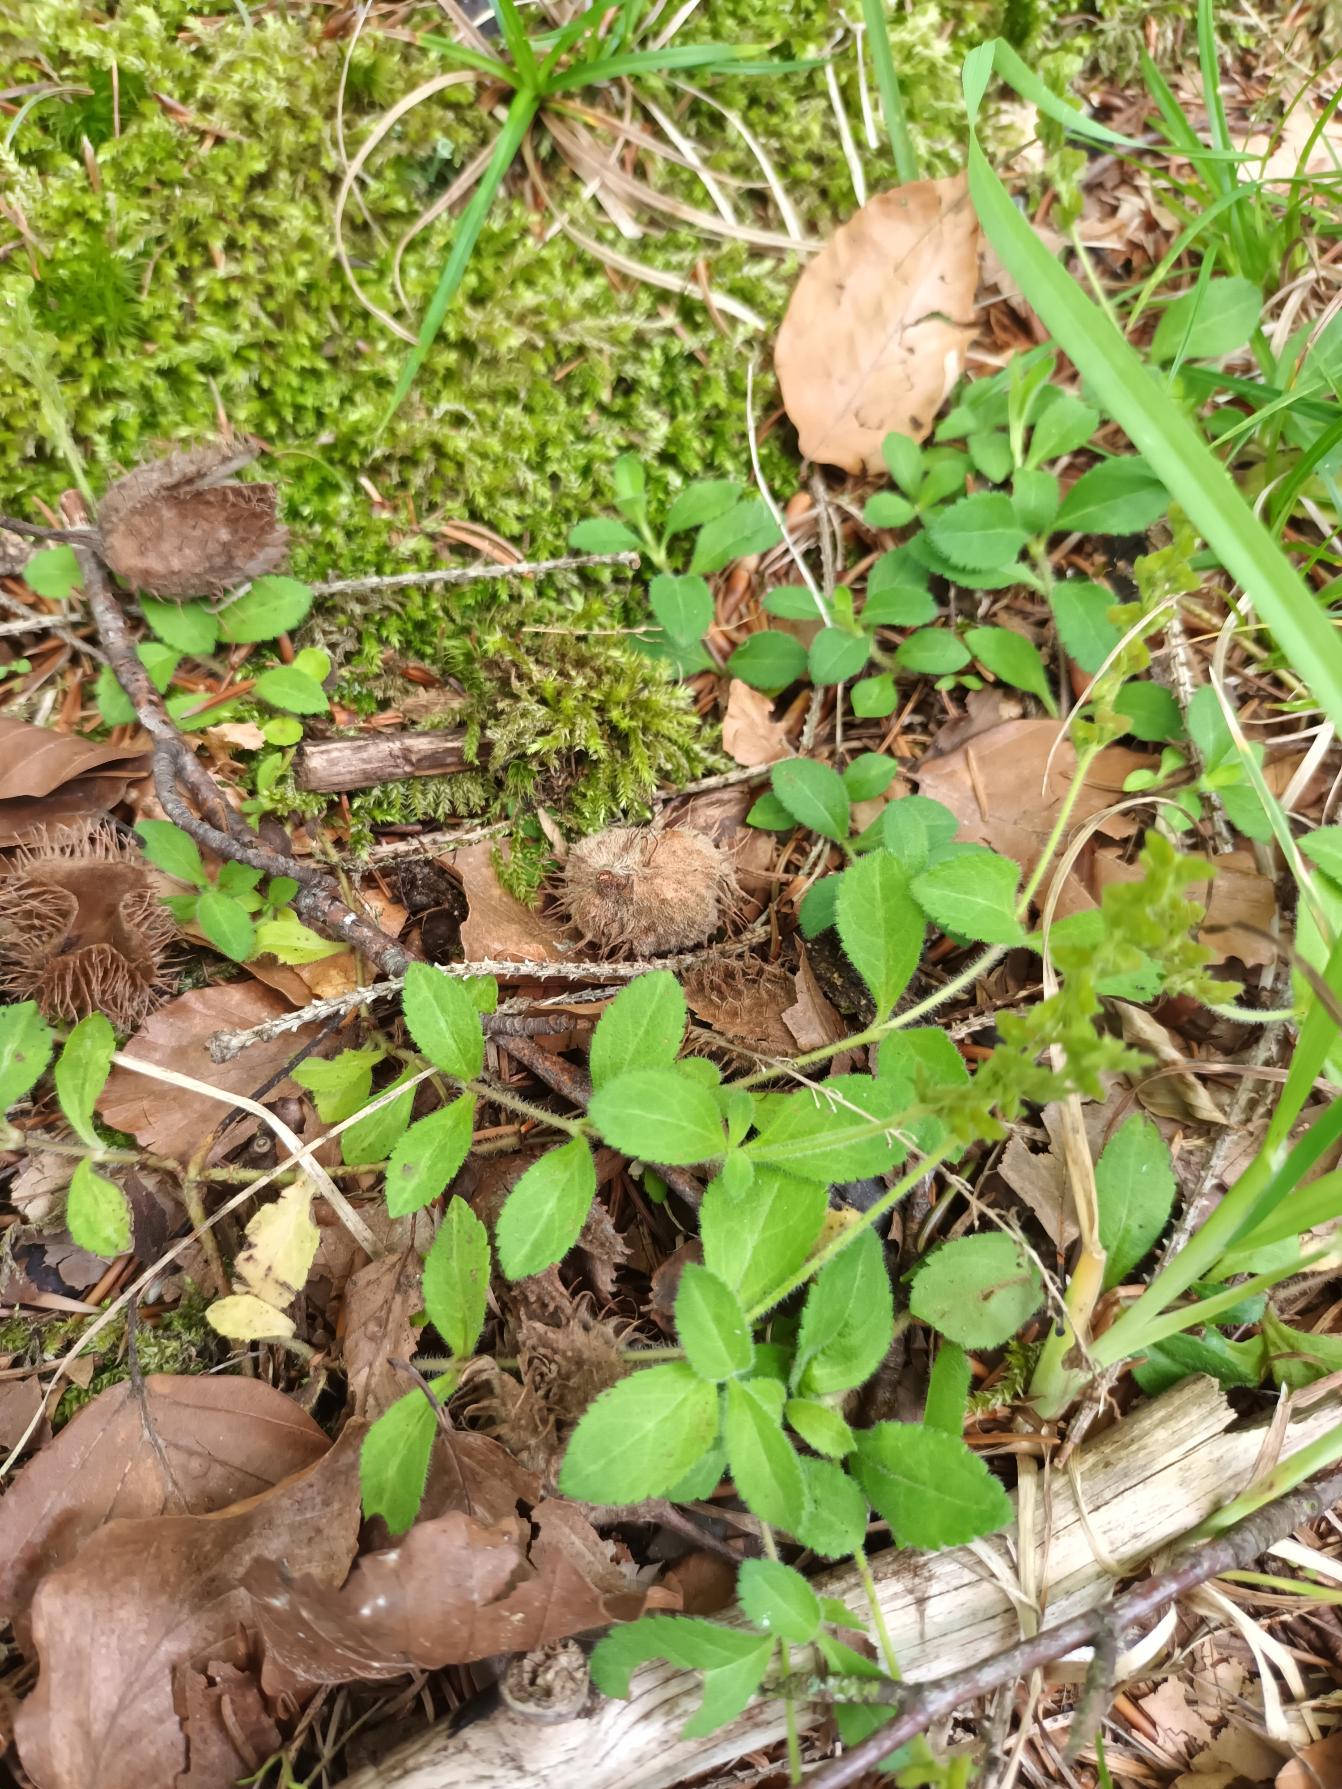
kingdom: Plantae
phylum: Tracheophyta
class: Magnoliopsida
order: Lamiales
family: Plantaginaceae
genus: Veronica
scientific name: Veronica officinalis
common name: Læge-ærenpris
